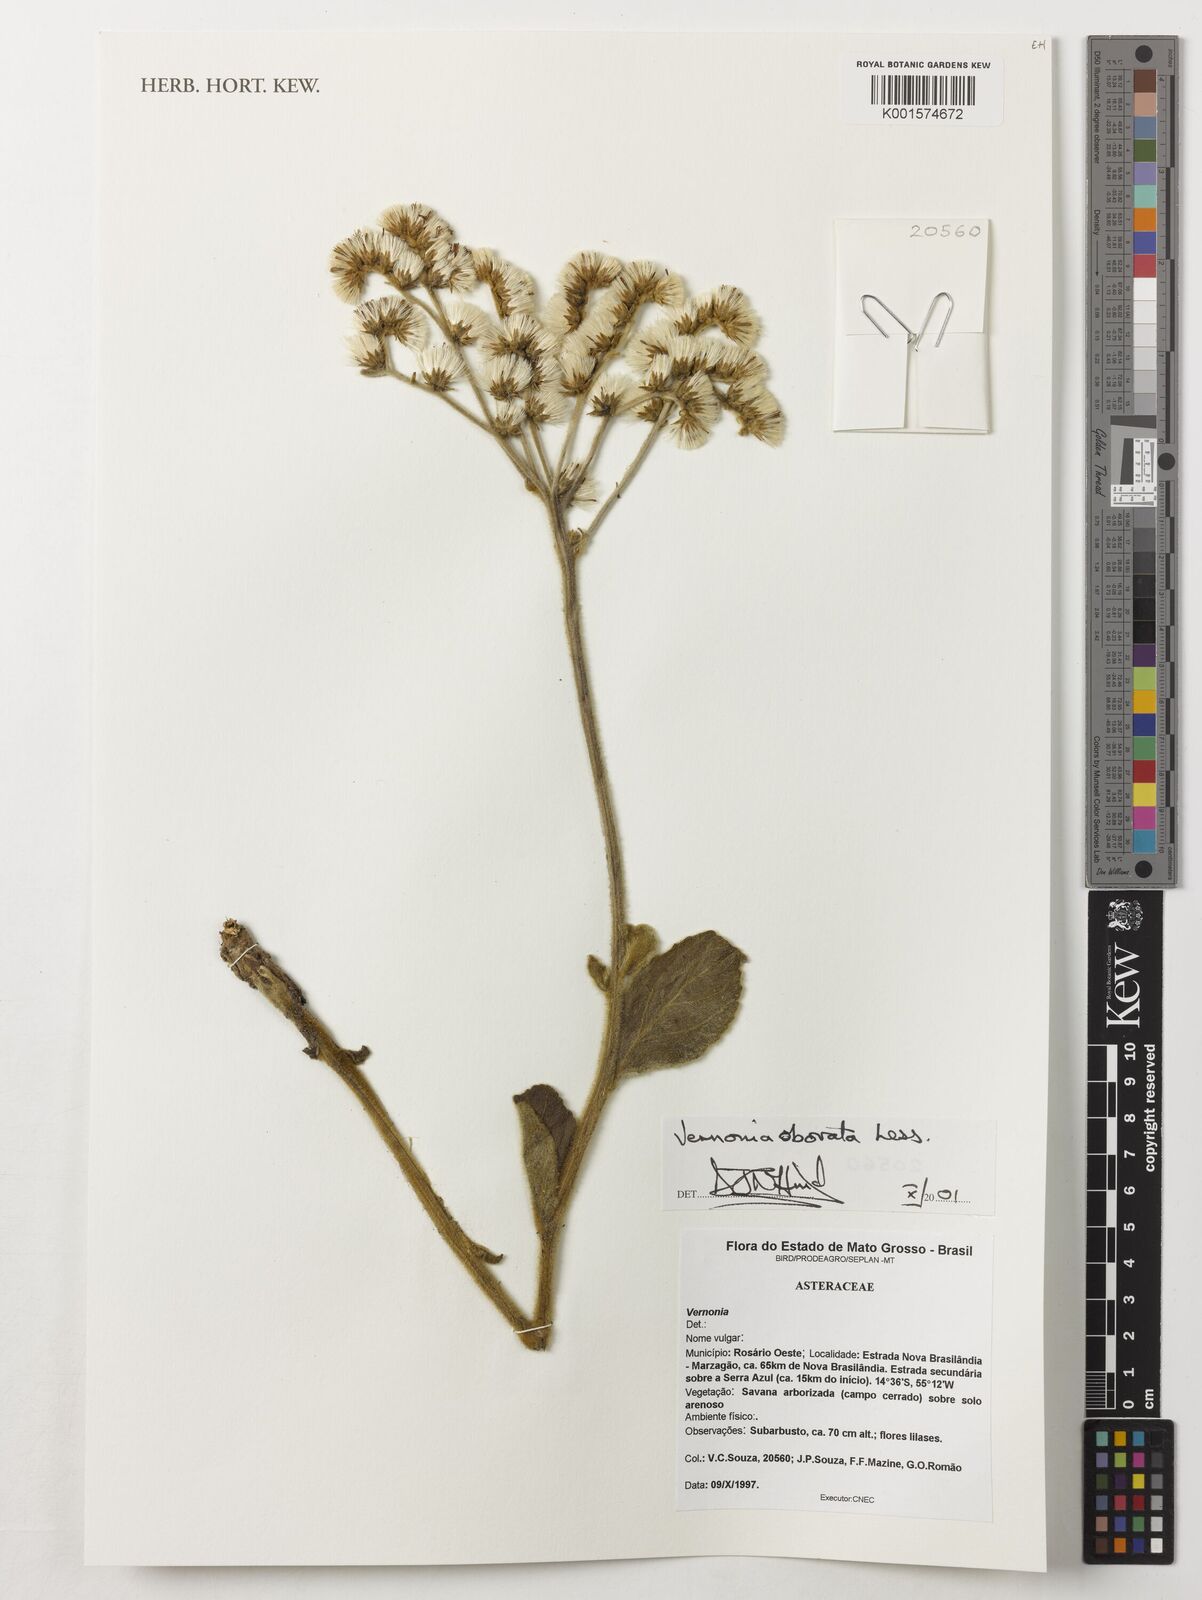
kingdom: Plantae
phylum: Tracheophyta
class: Magnoliopsida
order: Asterales
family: Asteraceae
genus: Chrysolaena
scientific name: Chrysolaena obovata
